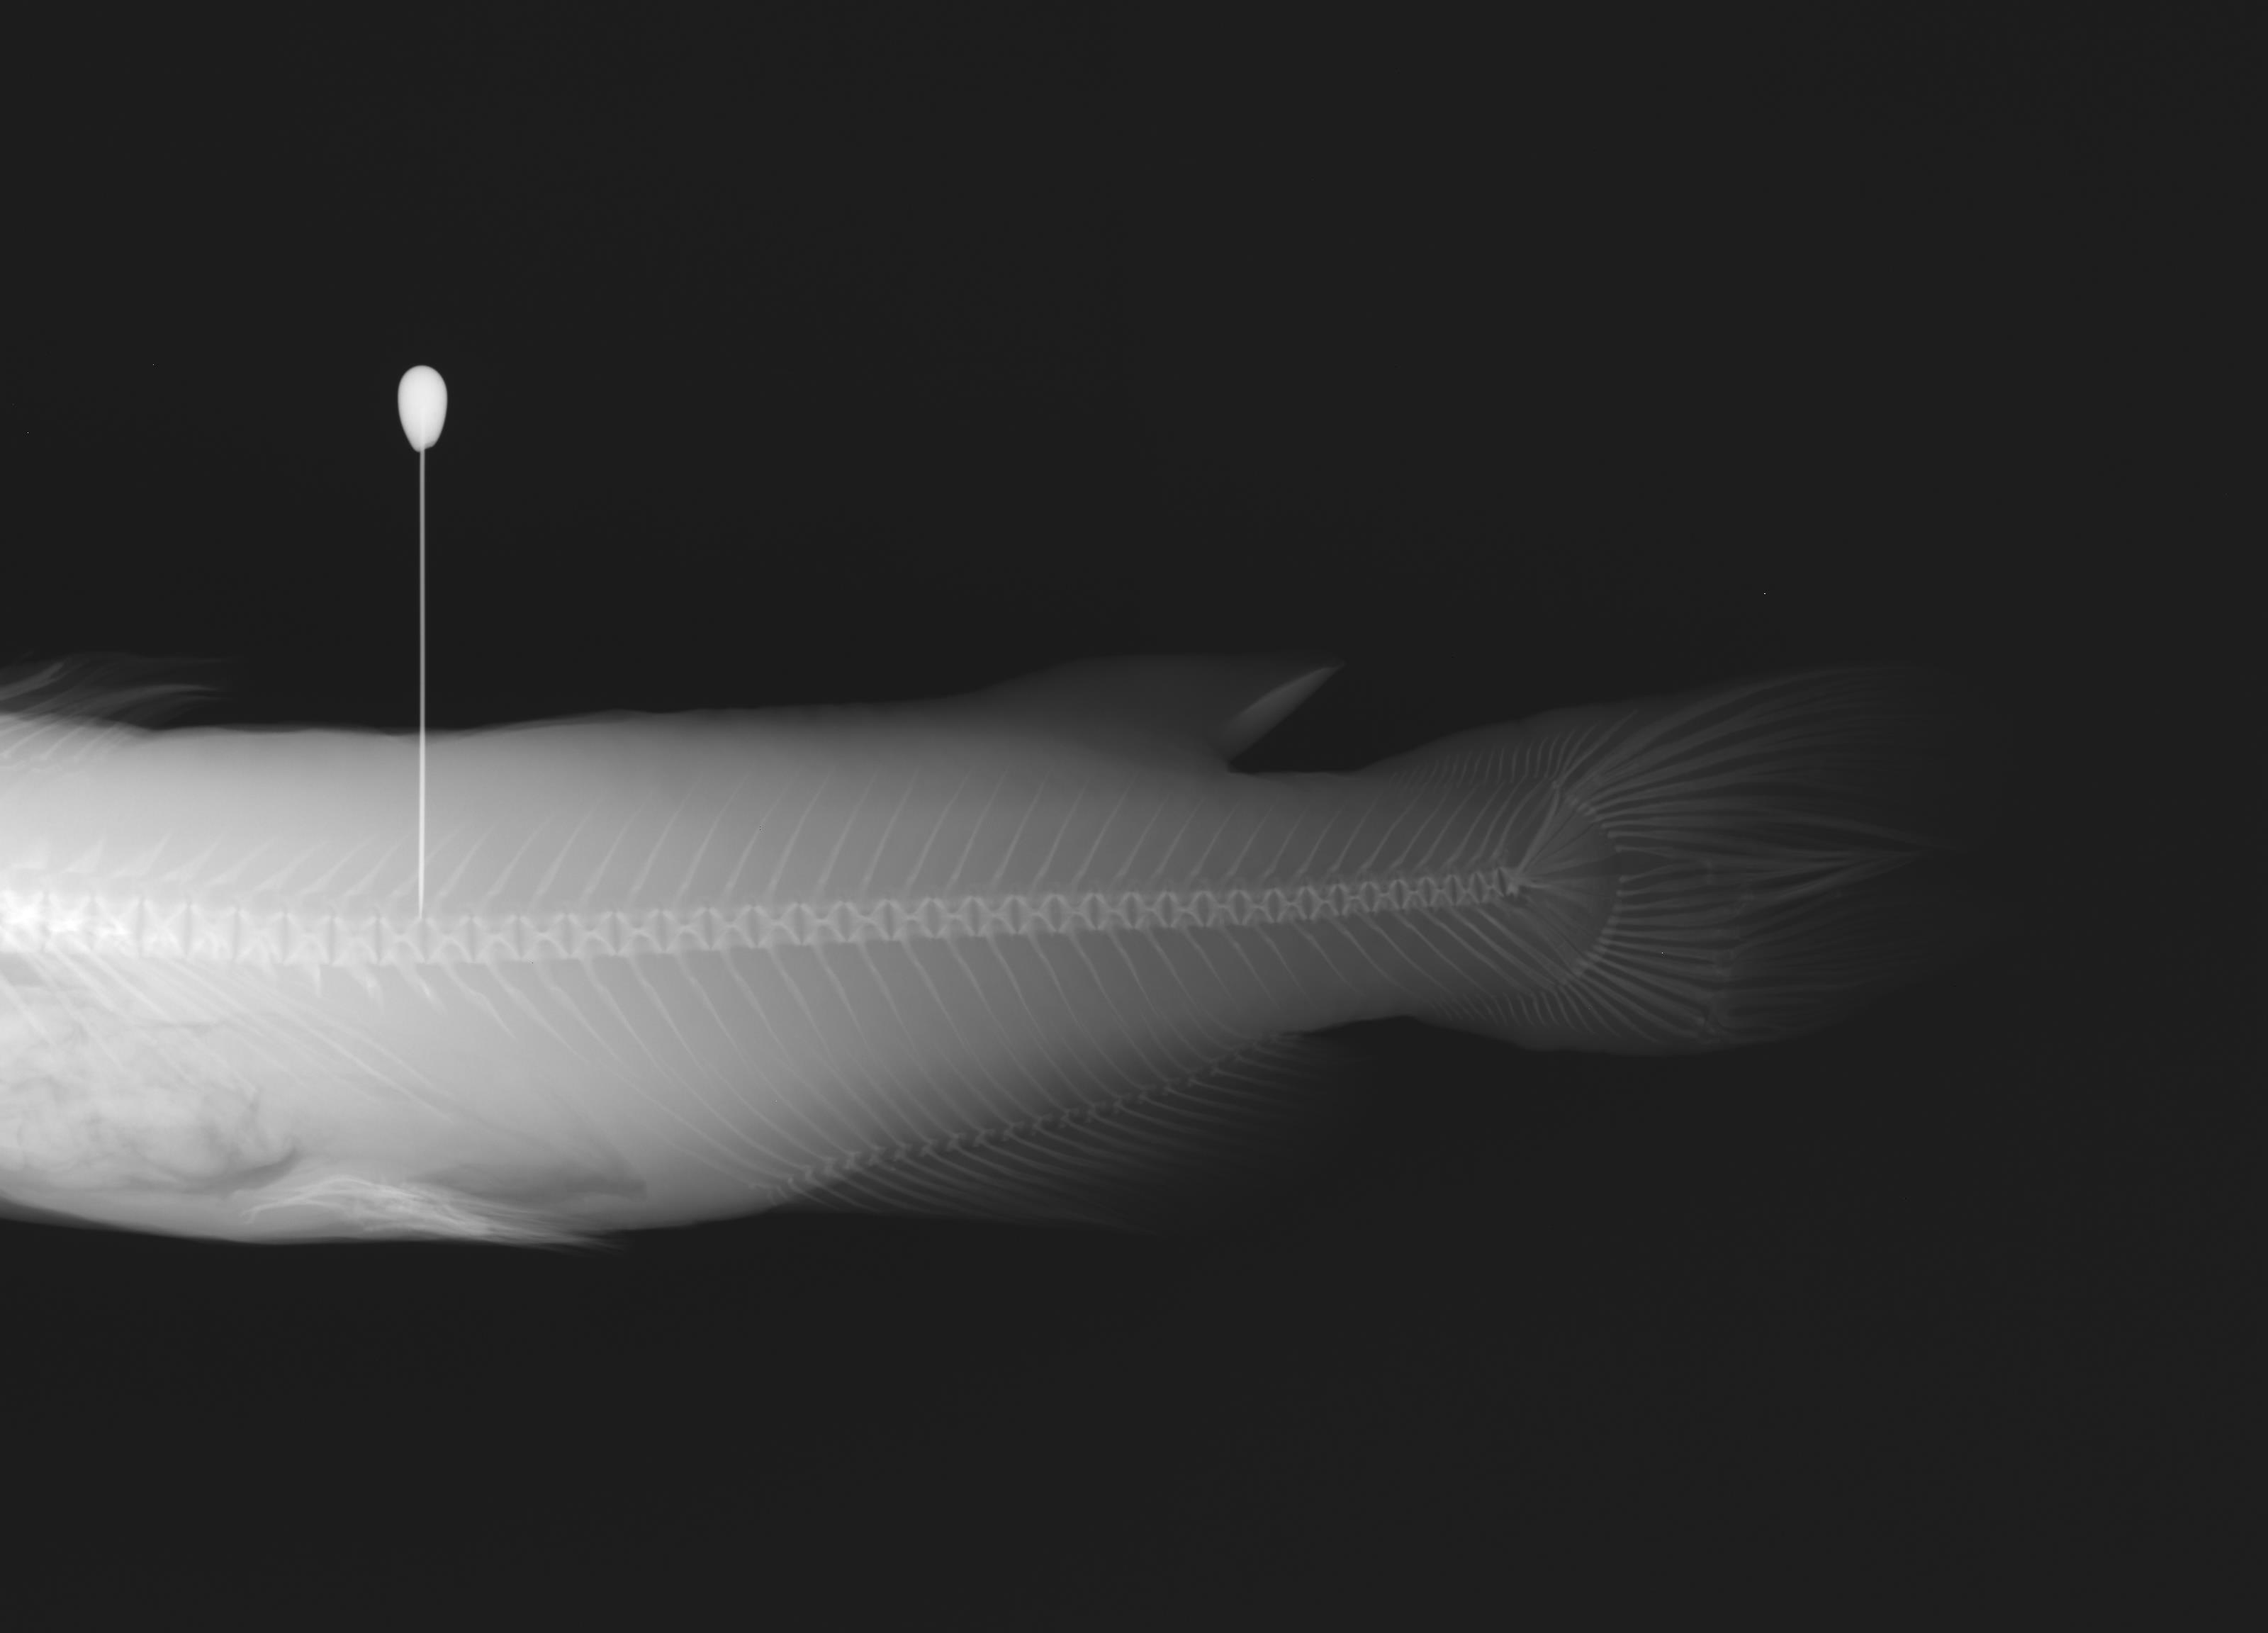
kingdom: Animalia
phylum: Chordata
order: Siluriformes
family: Ictaluridae
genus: Ictalurus
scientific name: Ictalurus pricei
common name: Yaqui catfish
